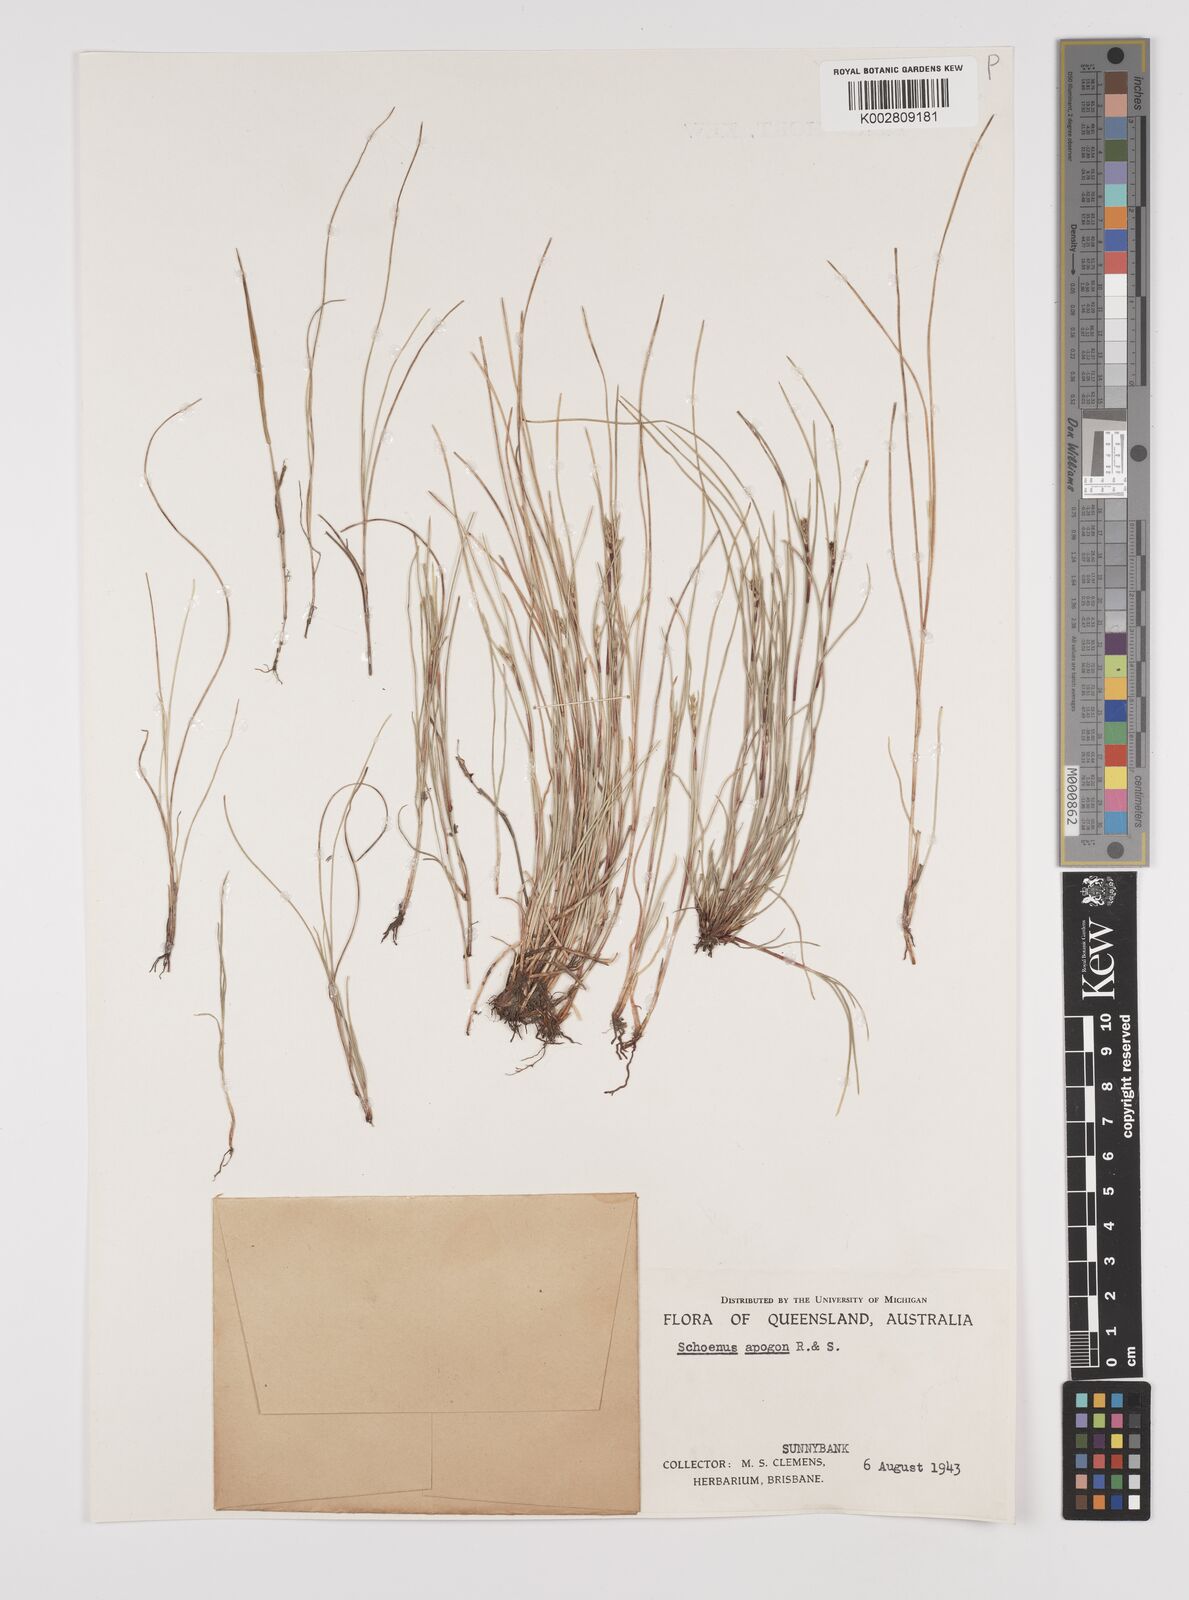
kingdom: Plantae
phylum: Tracheophyta
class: Liliopsida
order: Poales
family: Cyperaceae
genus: Schoenus
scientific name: Schoenus apogon
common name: Smooth bogrush
